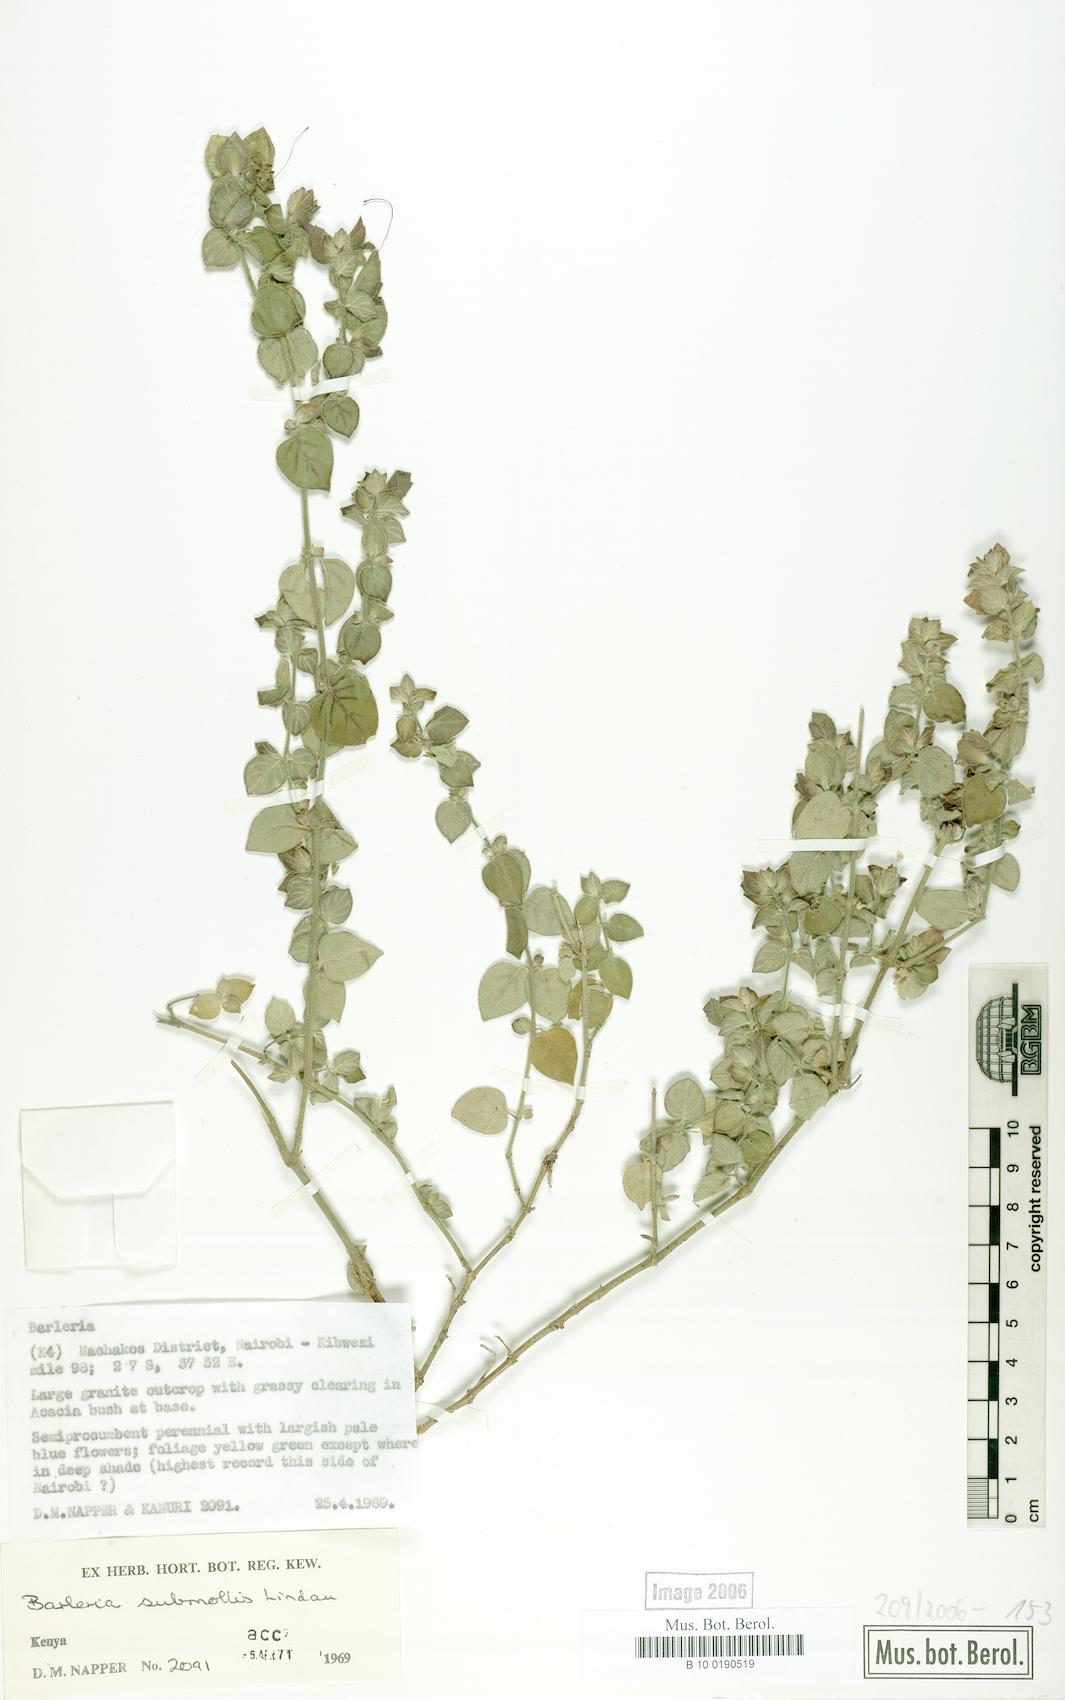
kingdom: Plantae
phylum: Tracheophyta
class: Magnoliopsida
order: Lamiales
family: Acanthaceae
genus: Barleria
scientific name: Barleria submollis
